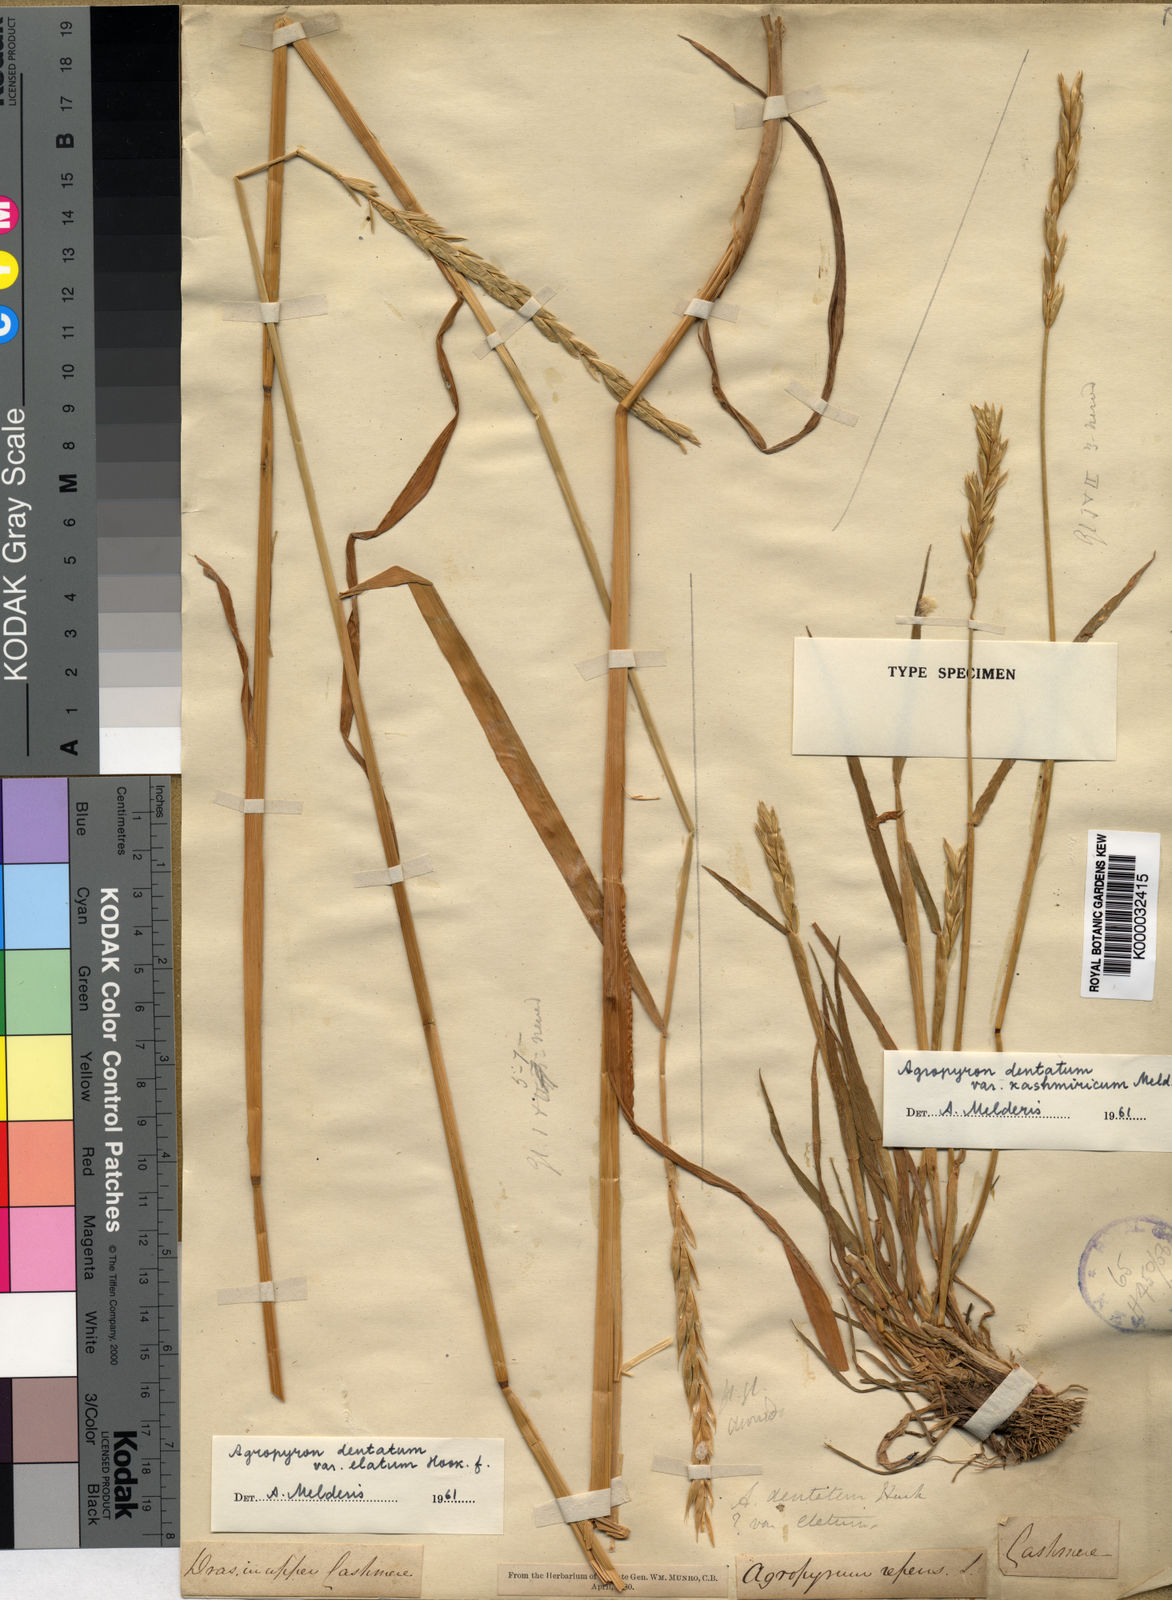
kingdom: Plantae
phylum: Tracheophyta
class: Liliopsida
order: Poales
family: Poaceae
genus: Elymus
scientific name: Elymus
